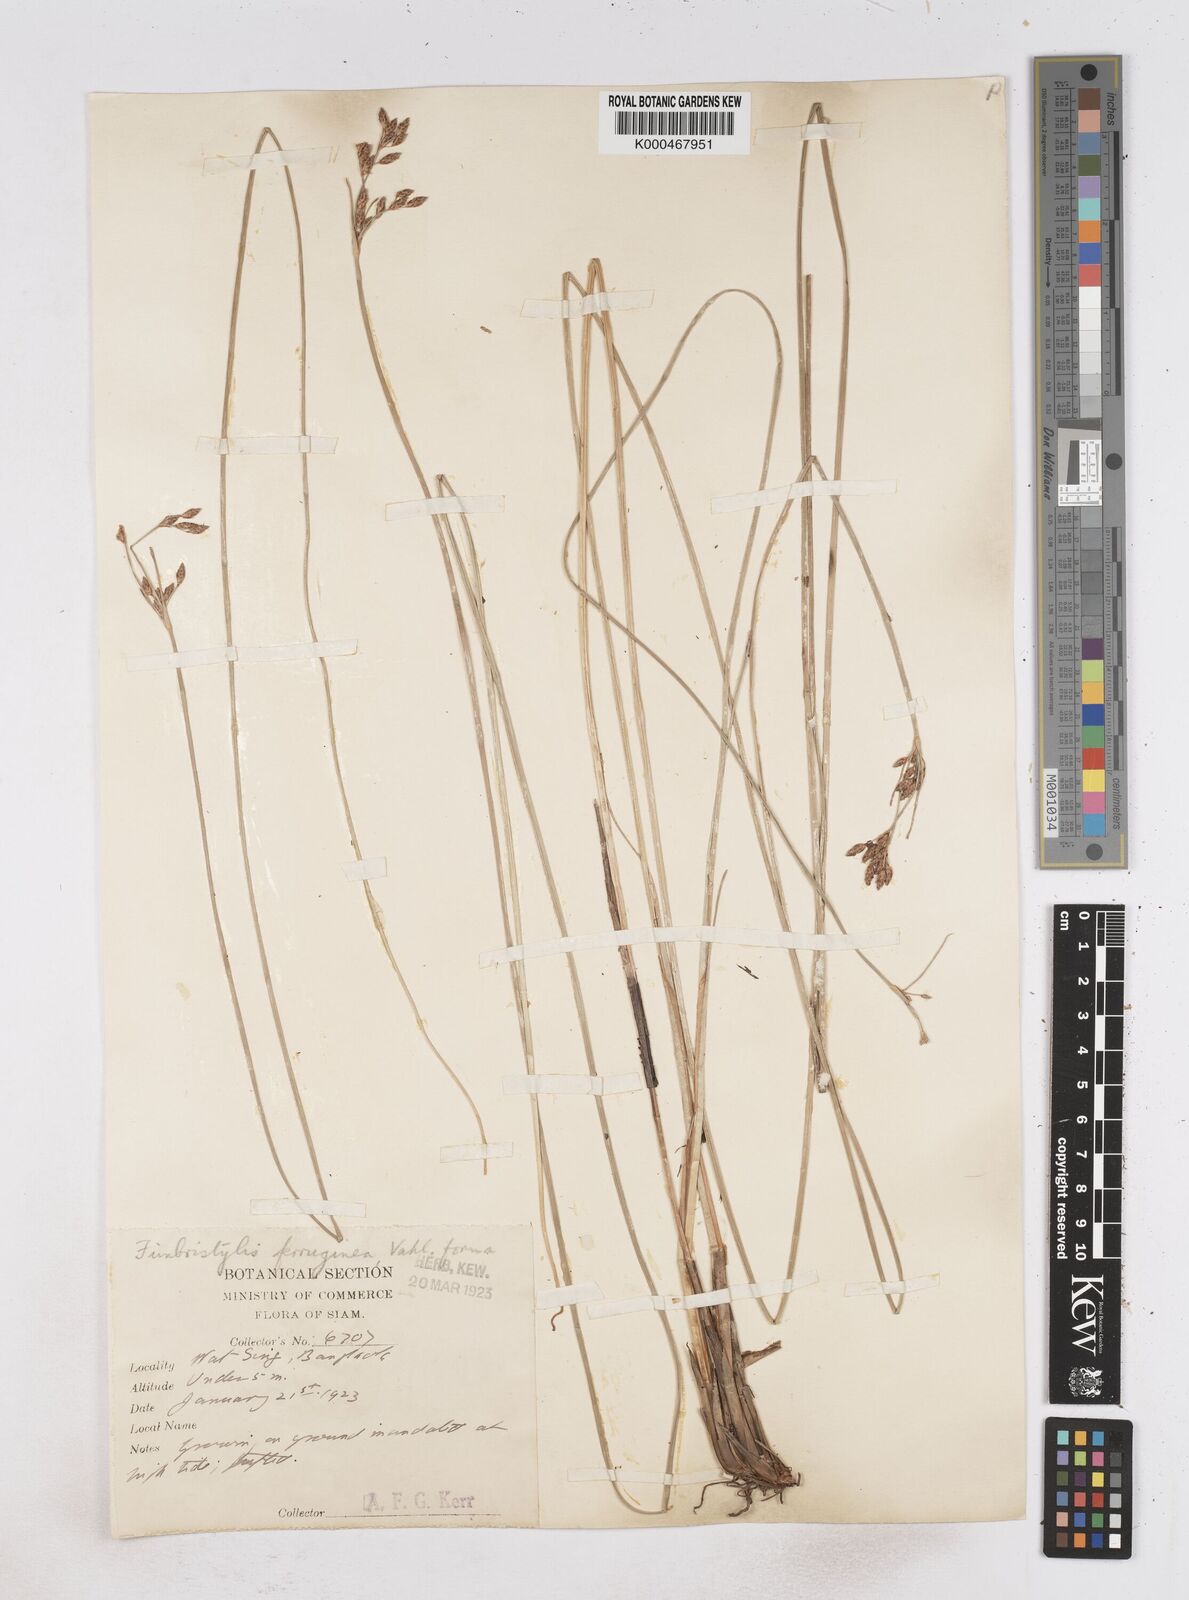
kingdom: Plantae
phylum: Tracheophyta
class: Liliopsida
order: Poales
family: Cyperaceae
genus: Fimbristylis
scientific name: Fimbristylis ferruginea
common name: West indian fimbry
